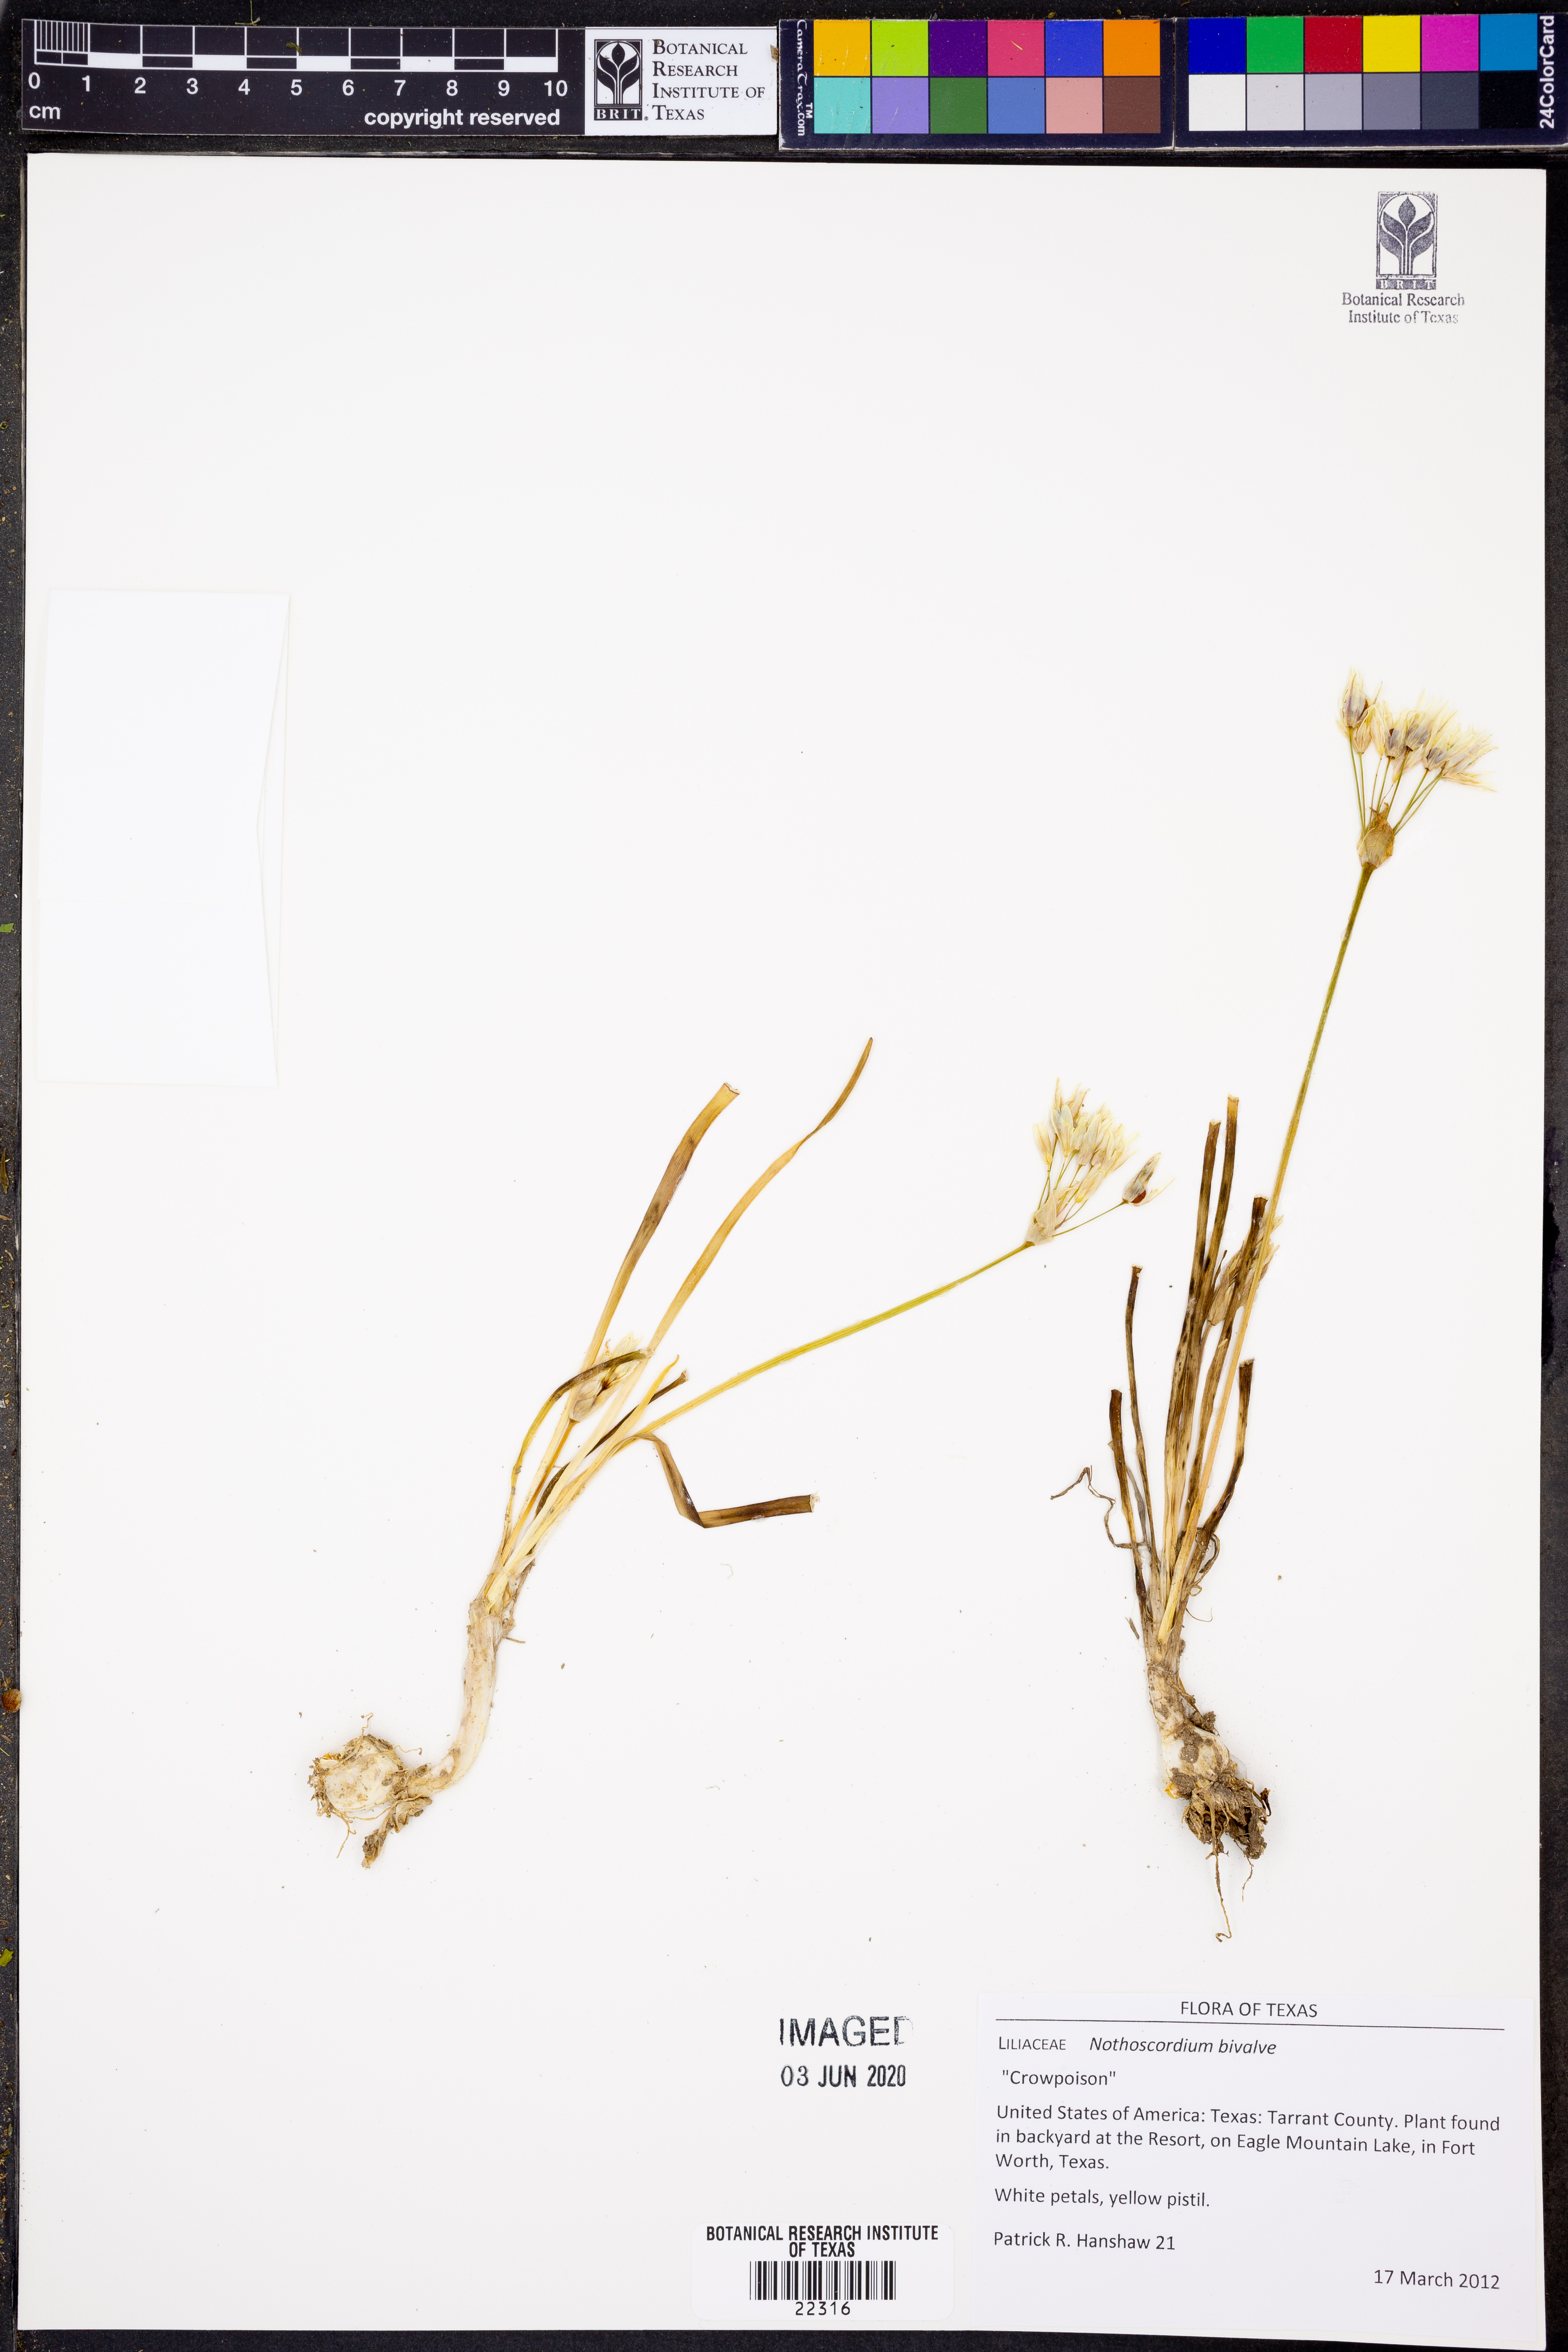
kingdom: Plantae
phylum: Tracheophyta
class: Liliopsida
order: Asparagales
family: Amaryllidaceae
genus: Nothoscordum
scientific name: Nothoscordum bivalve
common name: Crow-poison
